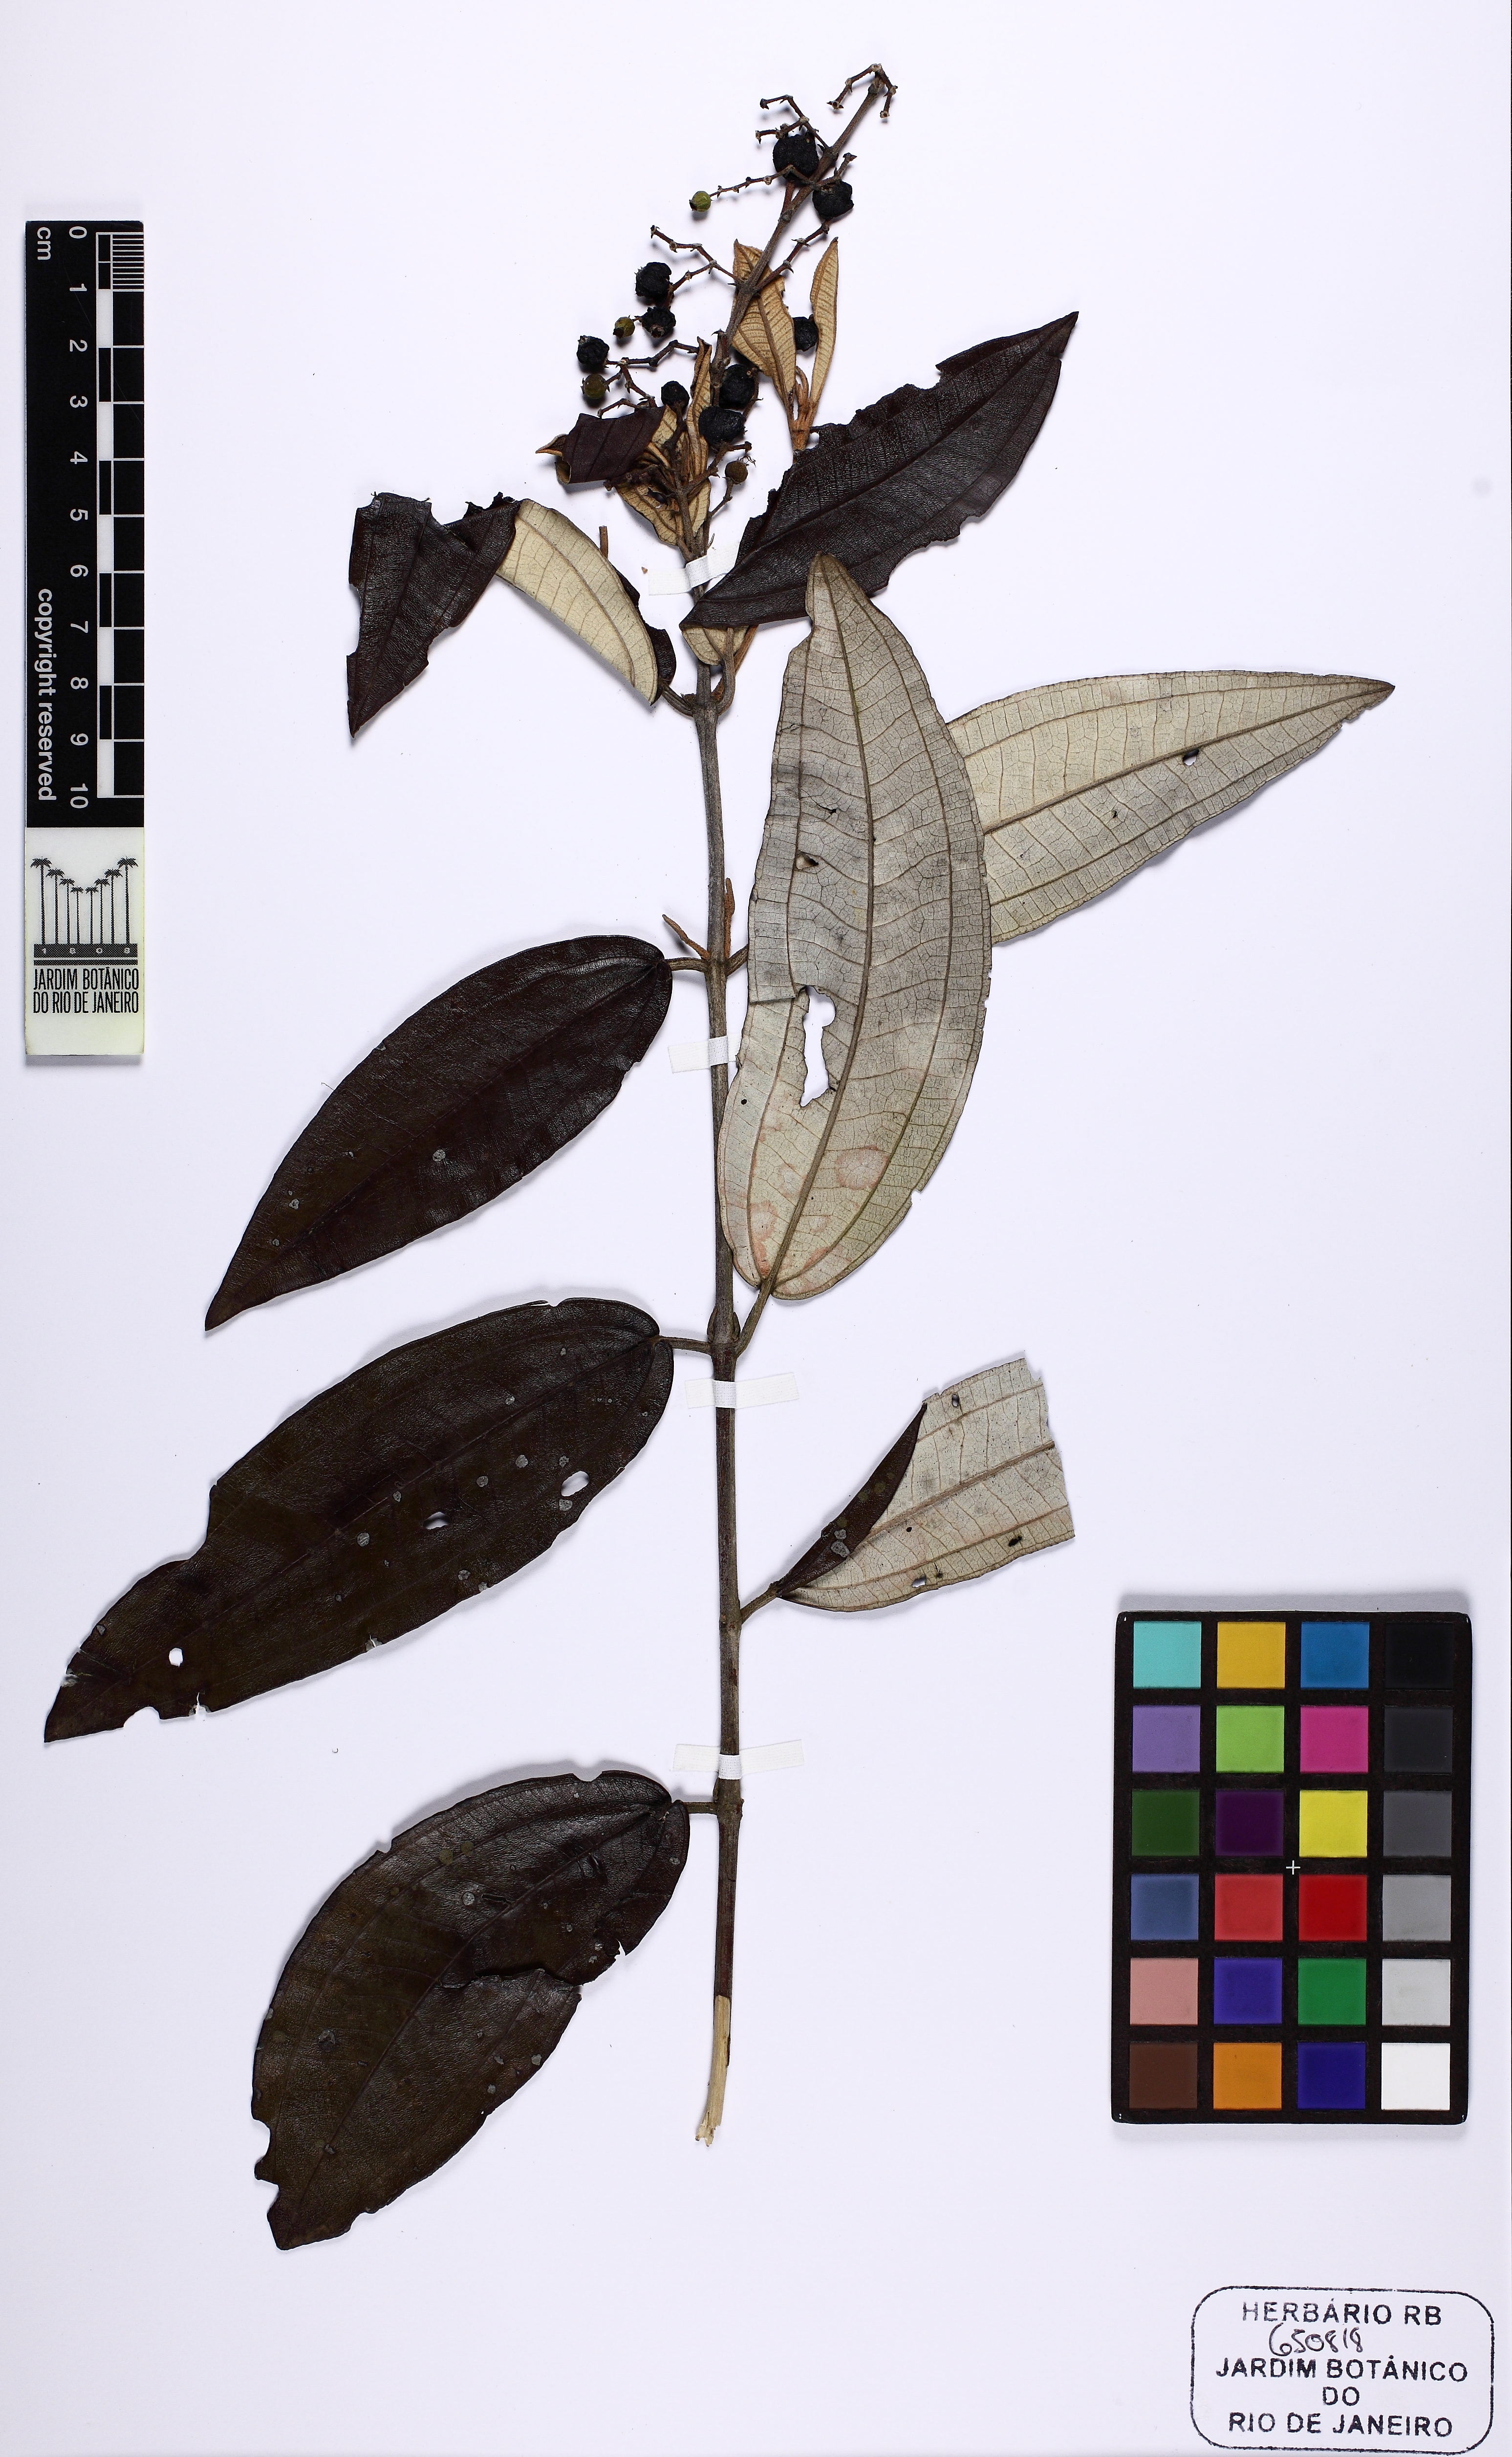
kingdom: Plantae
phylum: Tracheophyta
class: Magnoliopsida
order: Myrtales
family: Melastomataceae
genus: Miconia
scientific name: Miconia
